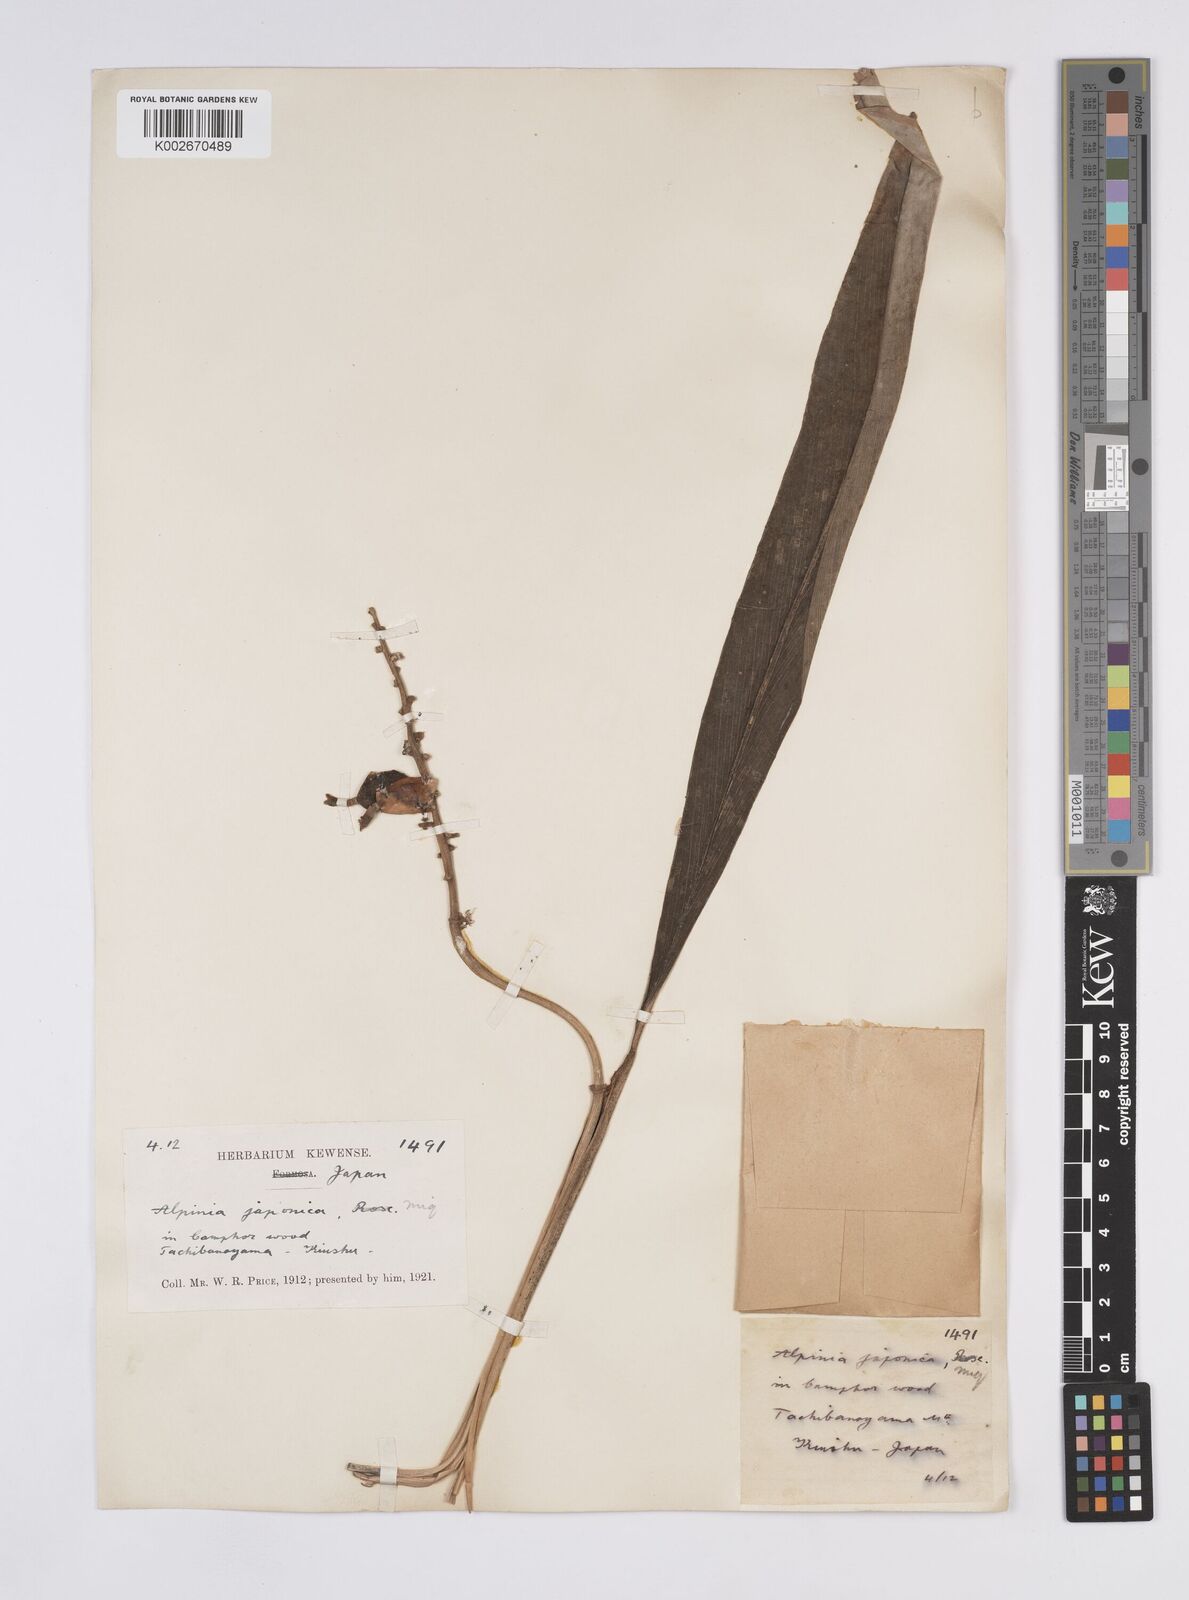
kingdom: Plantae
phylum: Tracheophyta
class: Liliopsida
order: Zingiberales
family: Zingiberaceae
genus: Alpinia
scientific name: Alpinia japonica
